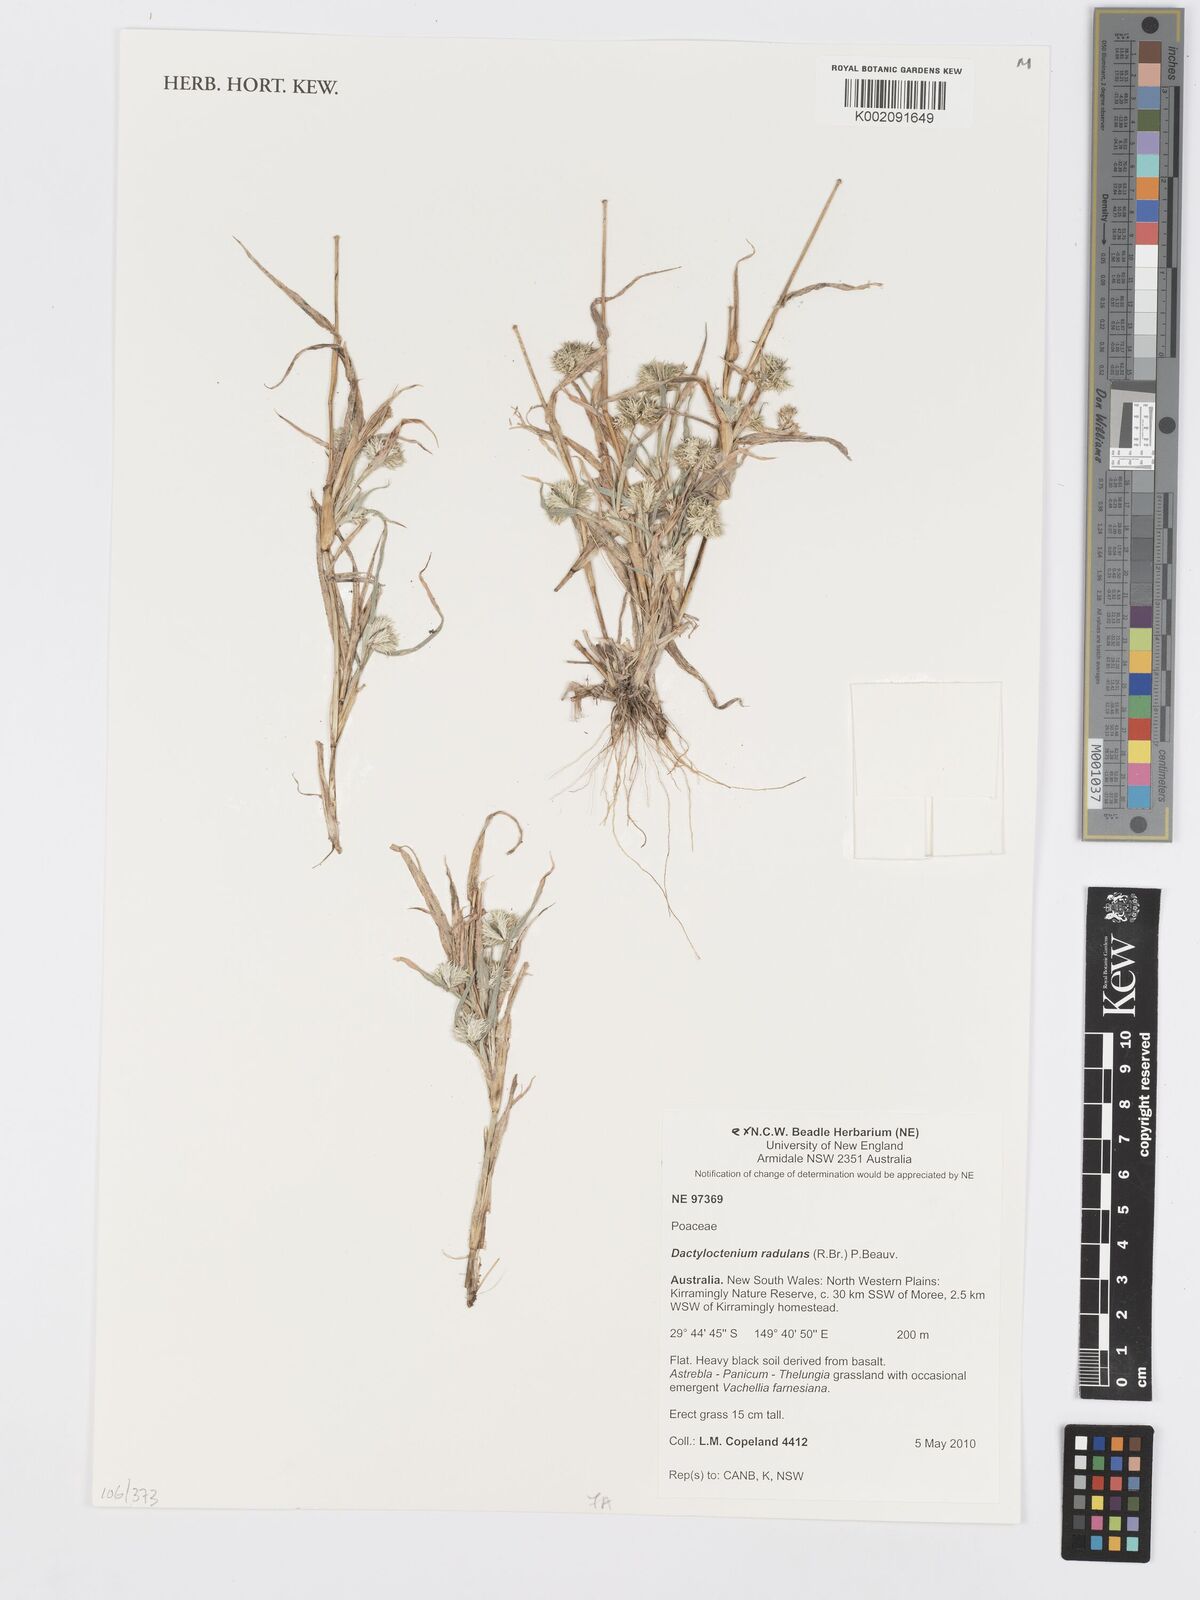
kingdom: Plantae
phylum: Tracheophyta
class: Liliopsida
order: Poales
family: Poaceae
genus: Dactyloctenium
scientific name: Dactyloctenium radulans
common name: Button-grass
